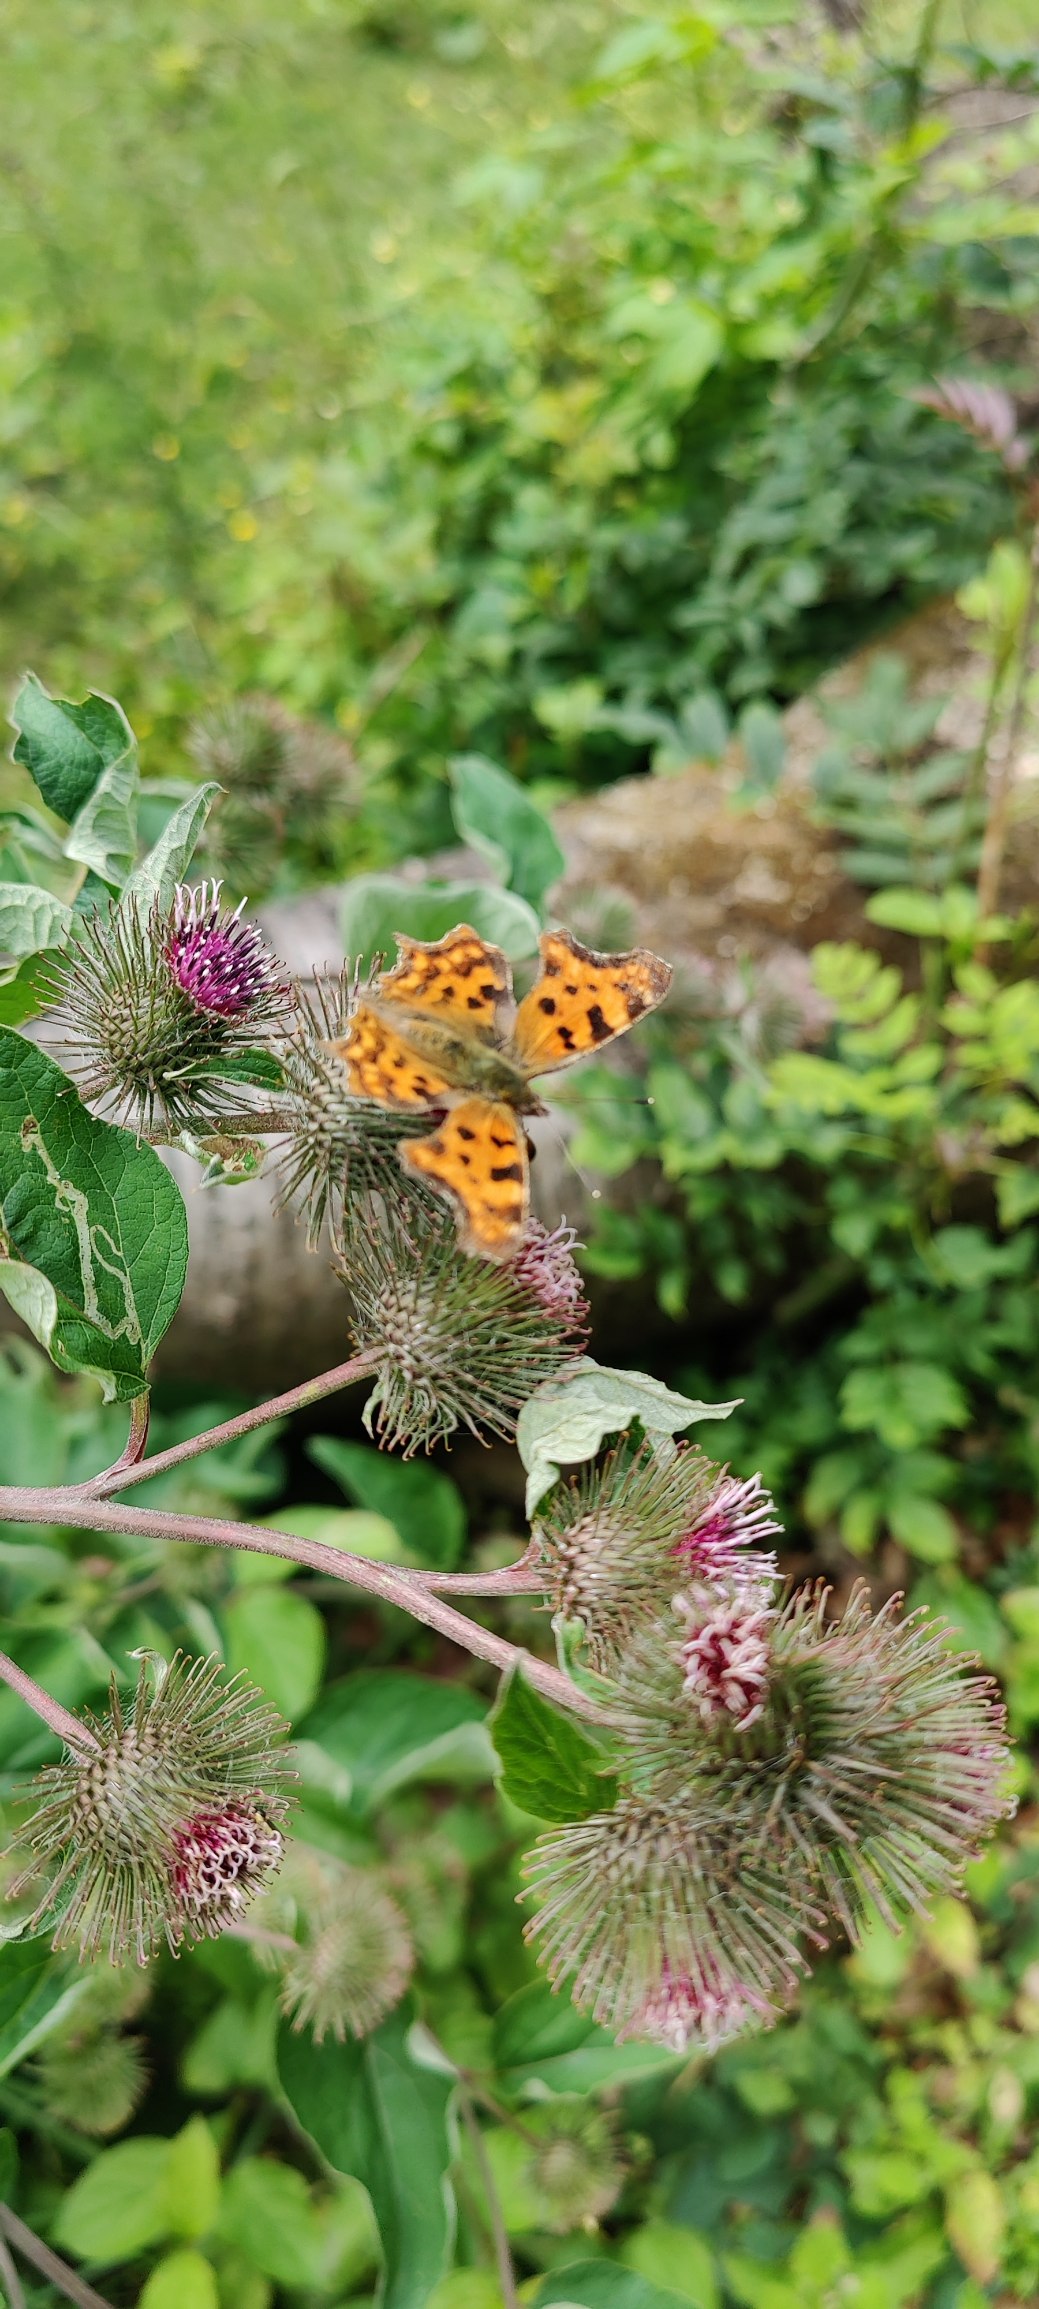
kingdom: Animalia
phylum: Arthropoda
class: Insecta
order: Lepidoptera
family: Nymphalidae
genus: Polygonia
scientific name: Polygonia c-album
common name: Det hvide C
